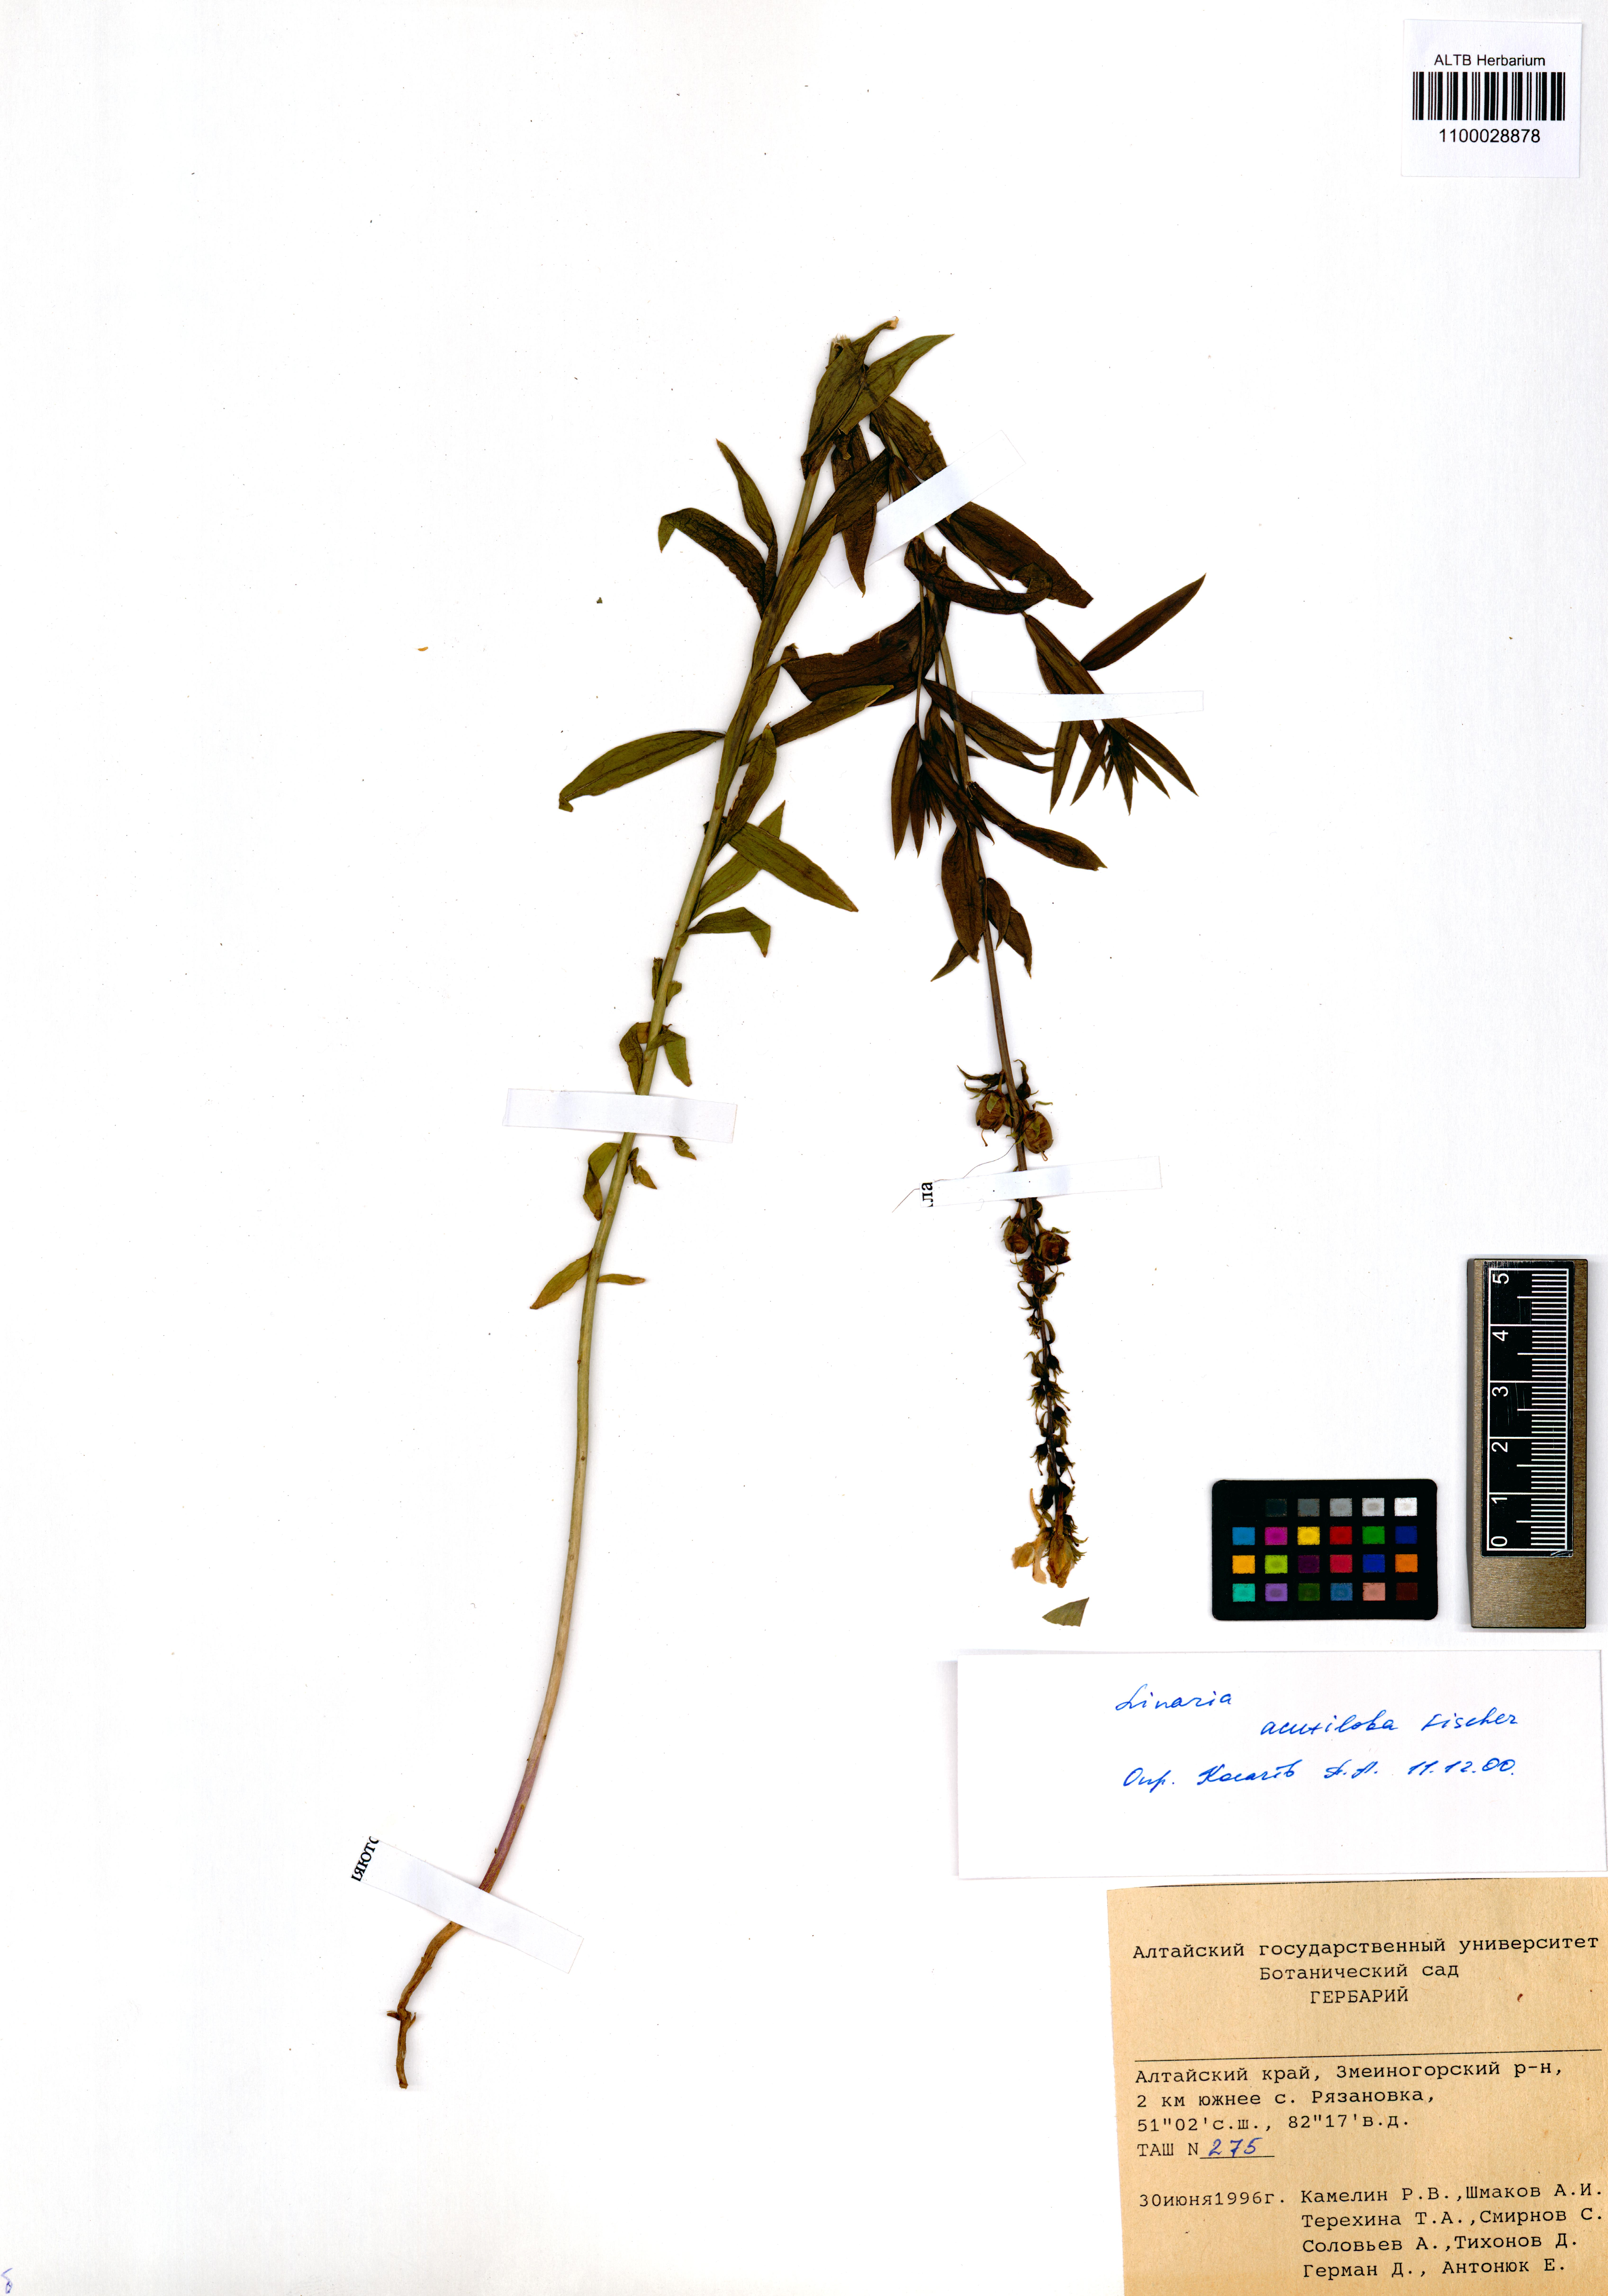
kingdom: Plantae
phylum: Tracheophyta
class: Magnoliopsida
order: Lamiales
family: Plantaginaceae
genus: Linaria
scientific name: Linaria acutiloba
